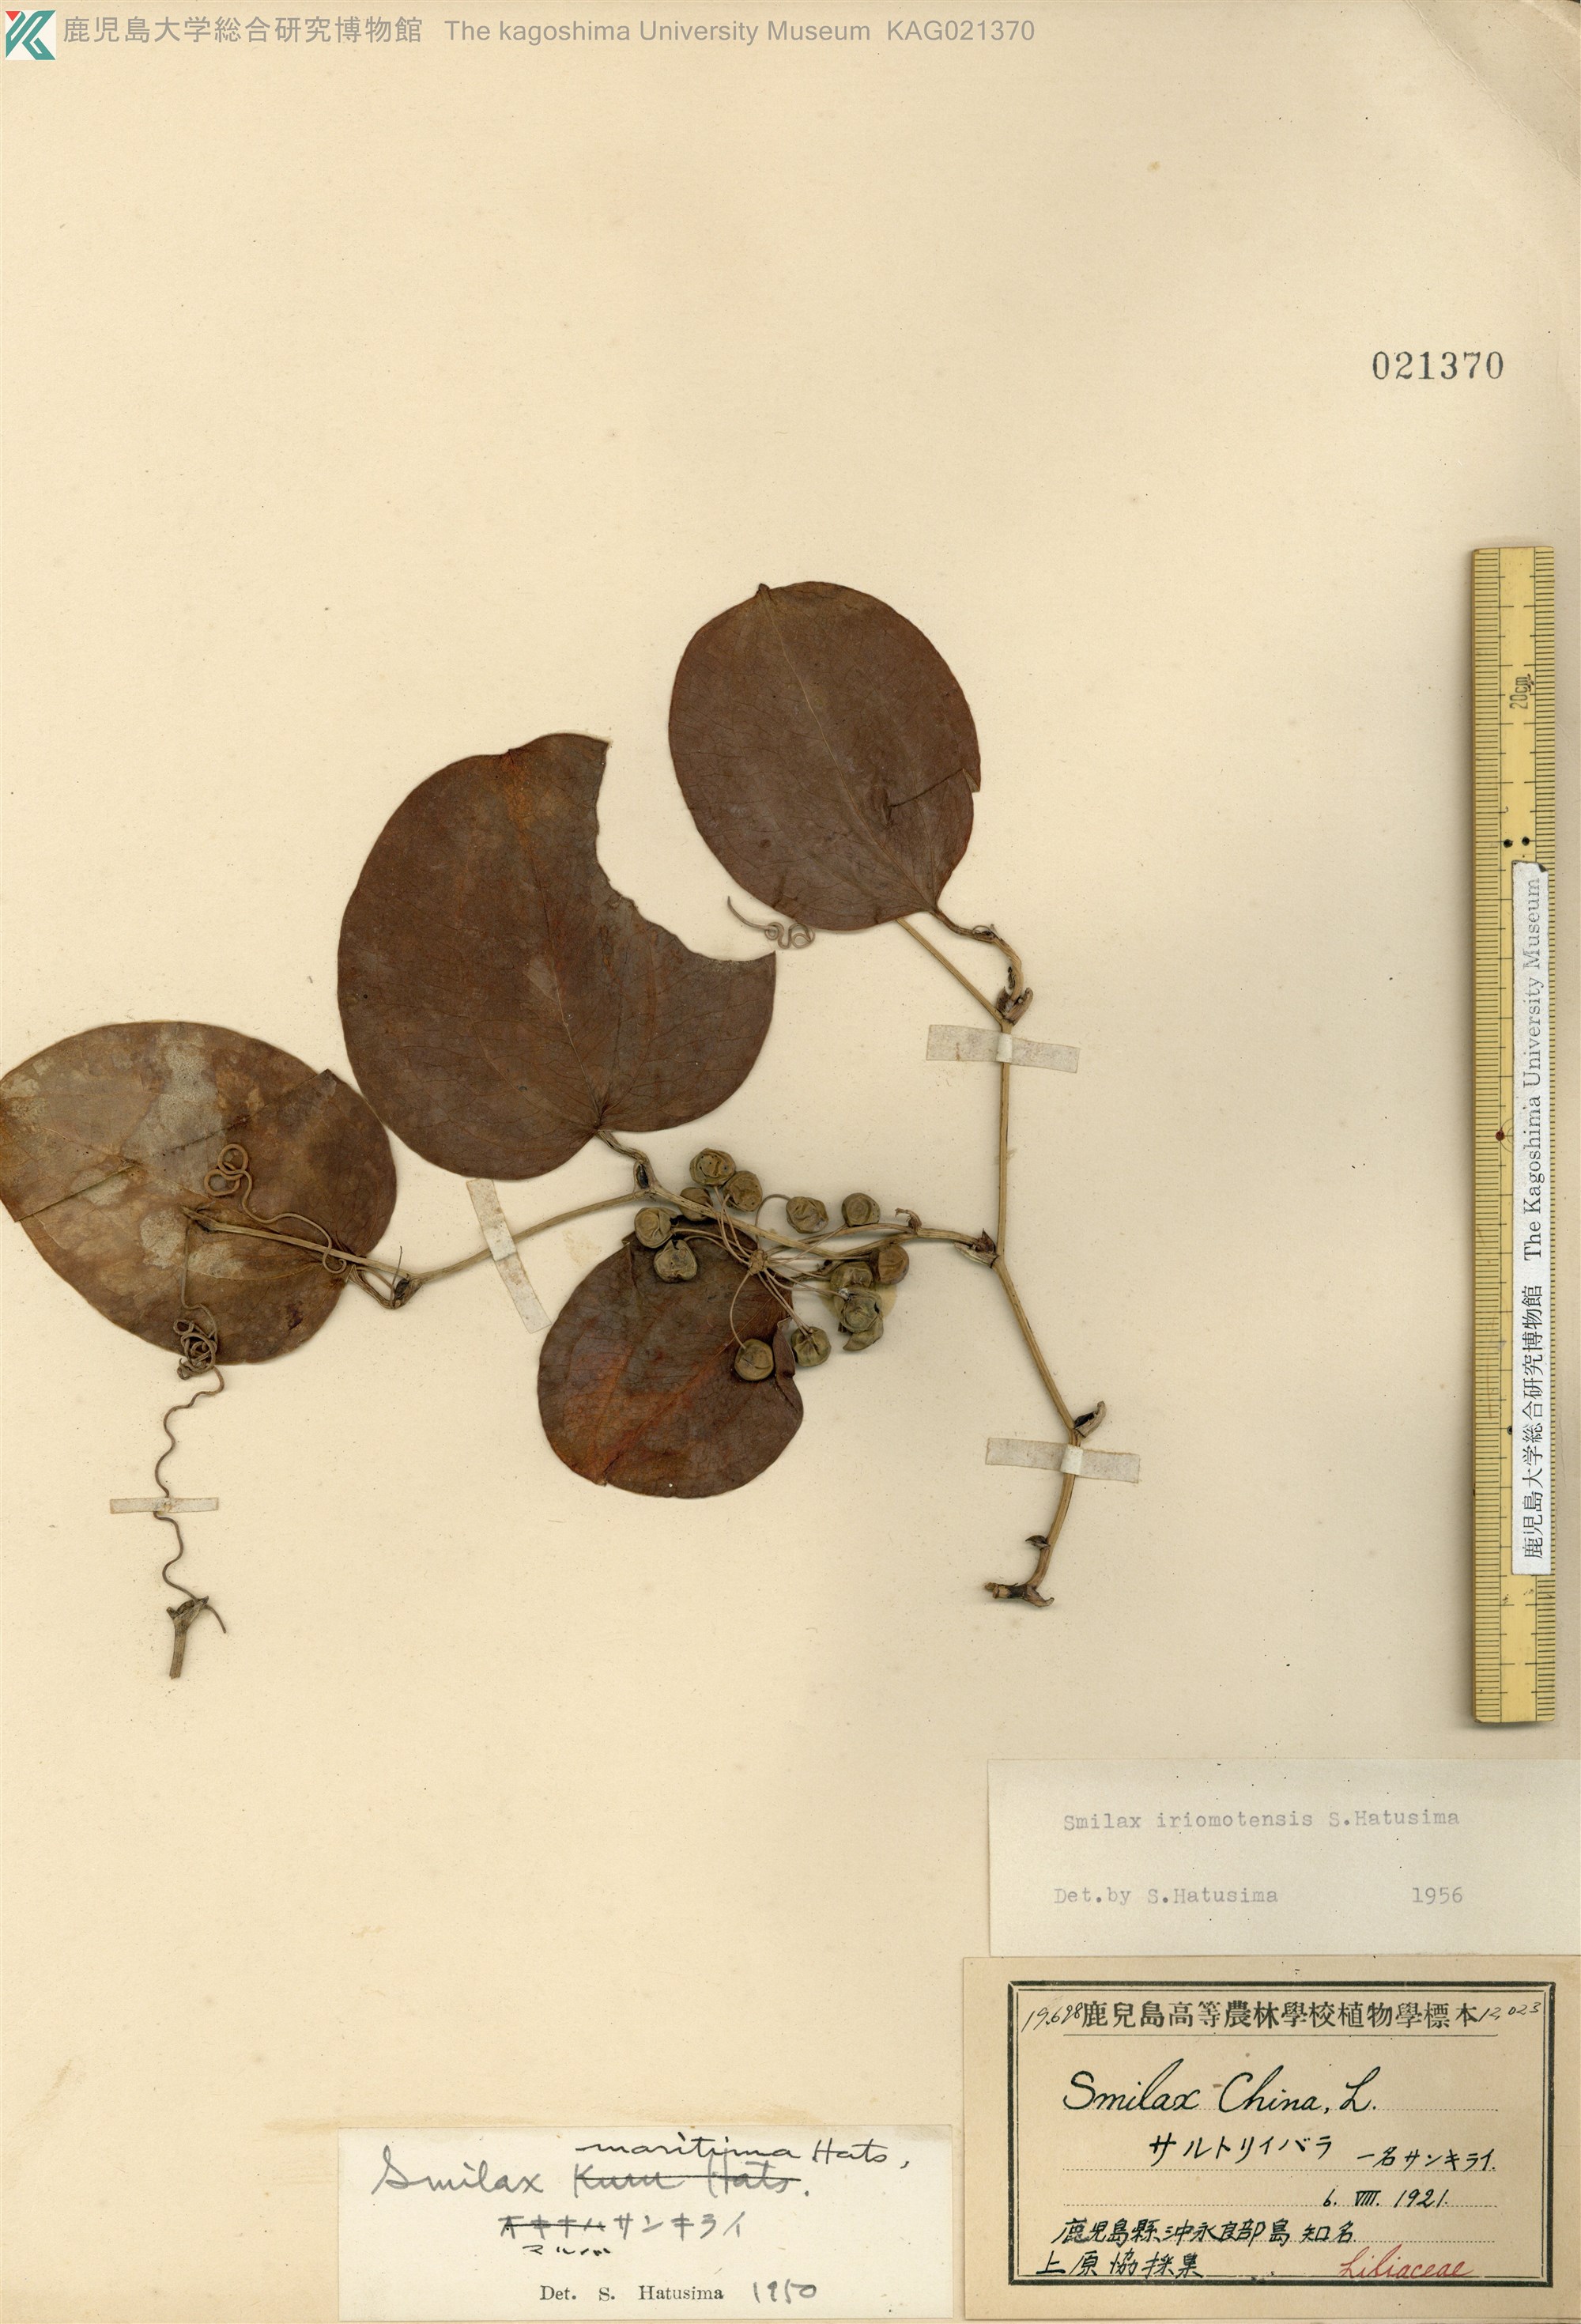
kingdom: Plantae
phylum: Tracheophyta
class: Liliopsida
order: Liliales
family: Smilacaceae
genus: Smilax
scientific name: Smilax sebeana
